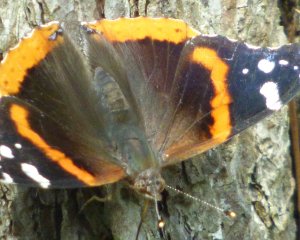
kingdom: Animalia
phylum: Arthropoda
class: Insecta
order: Lepidoptera
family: Nymphalidae
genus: Vanessa
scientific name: Vanessa atalanta
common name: Red Admiral
